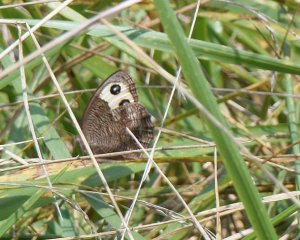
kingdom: Animalia
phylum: Arthropoda
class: Insecta
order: Lepidoptera
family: Nymphalidae
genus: Cercyonis
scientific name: Cercyonis pegala
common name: Common Wood-Nymph
